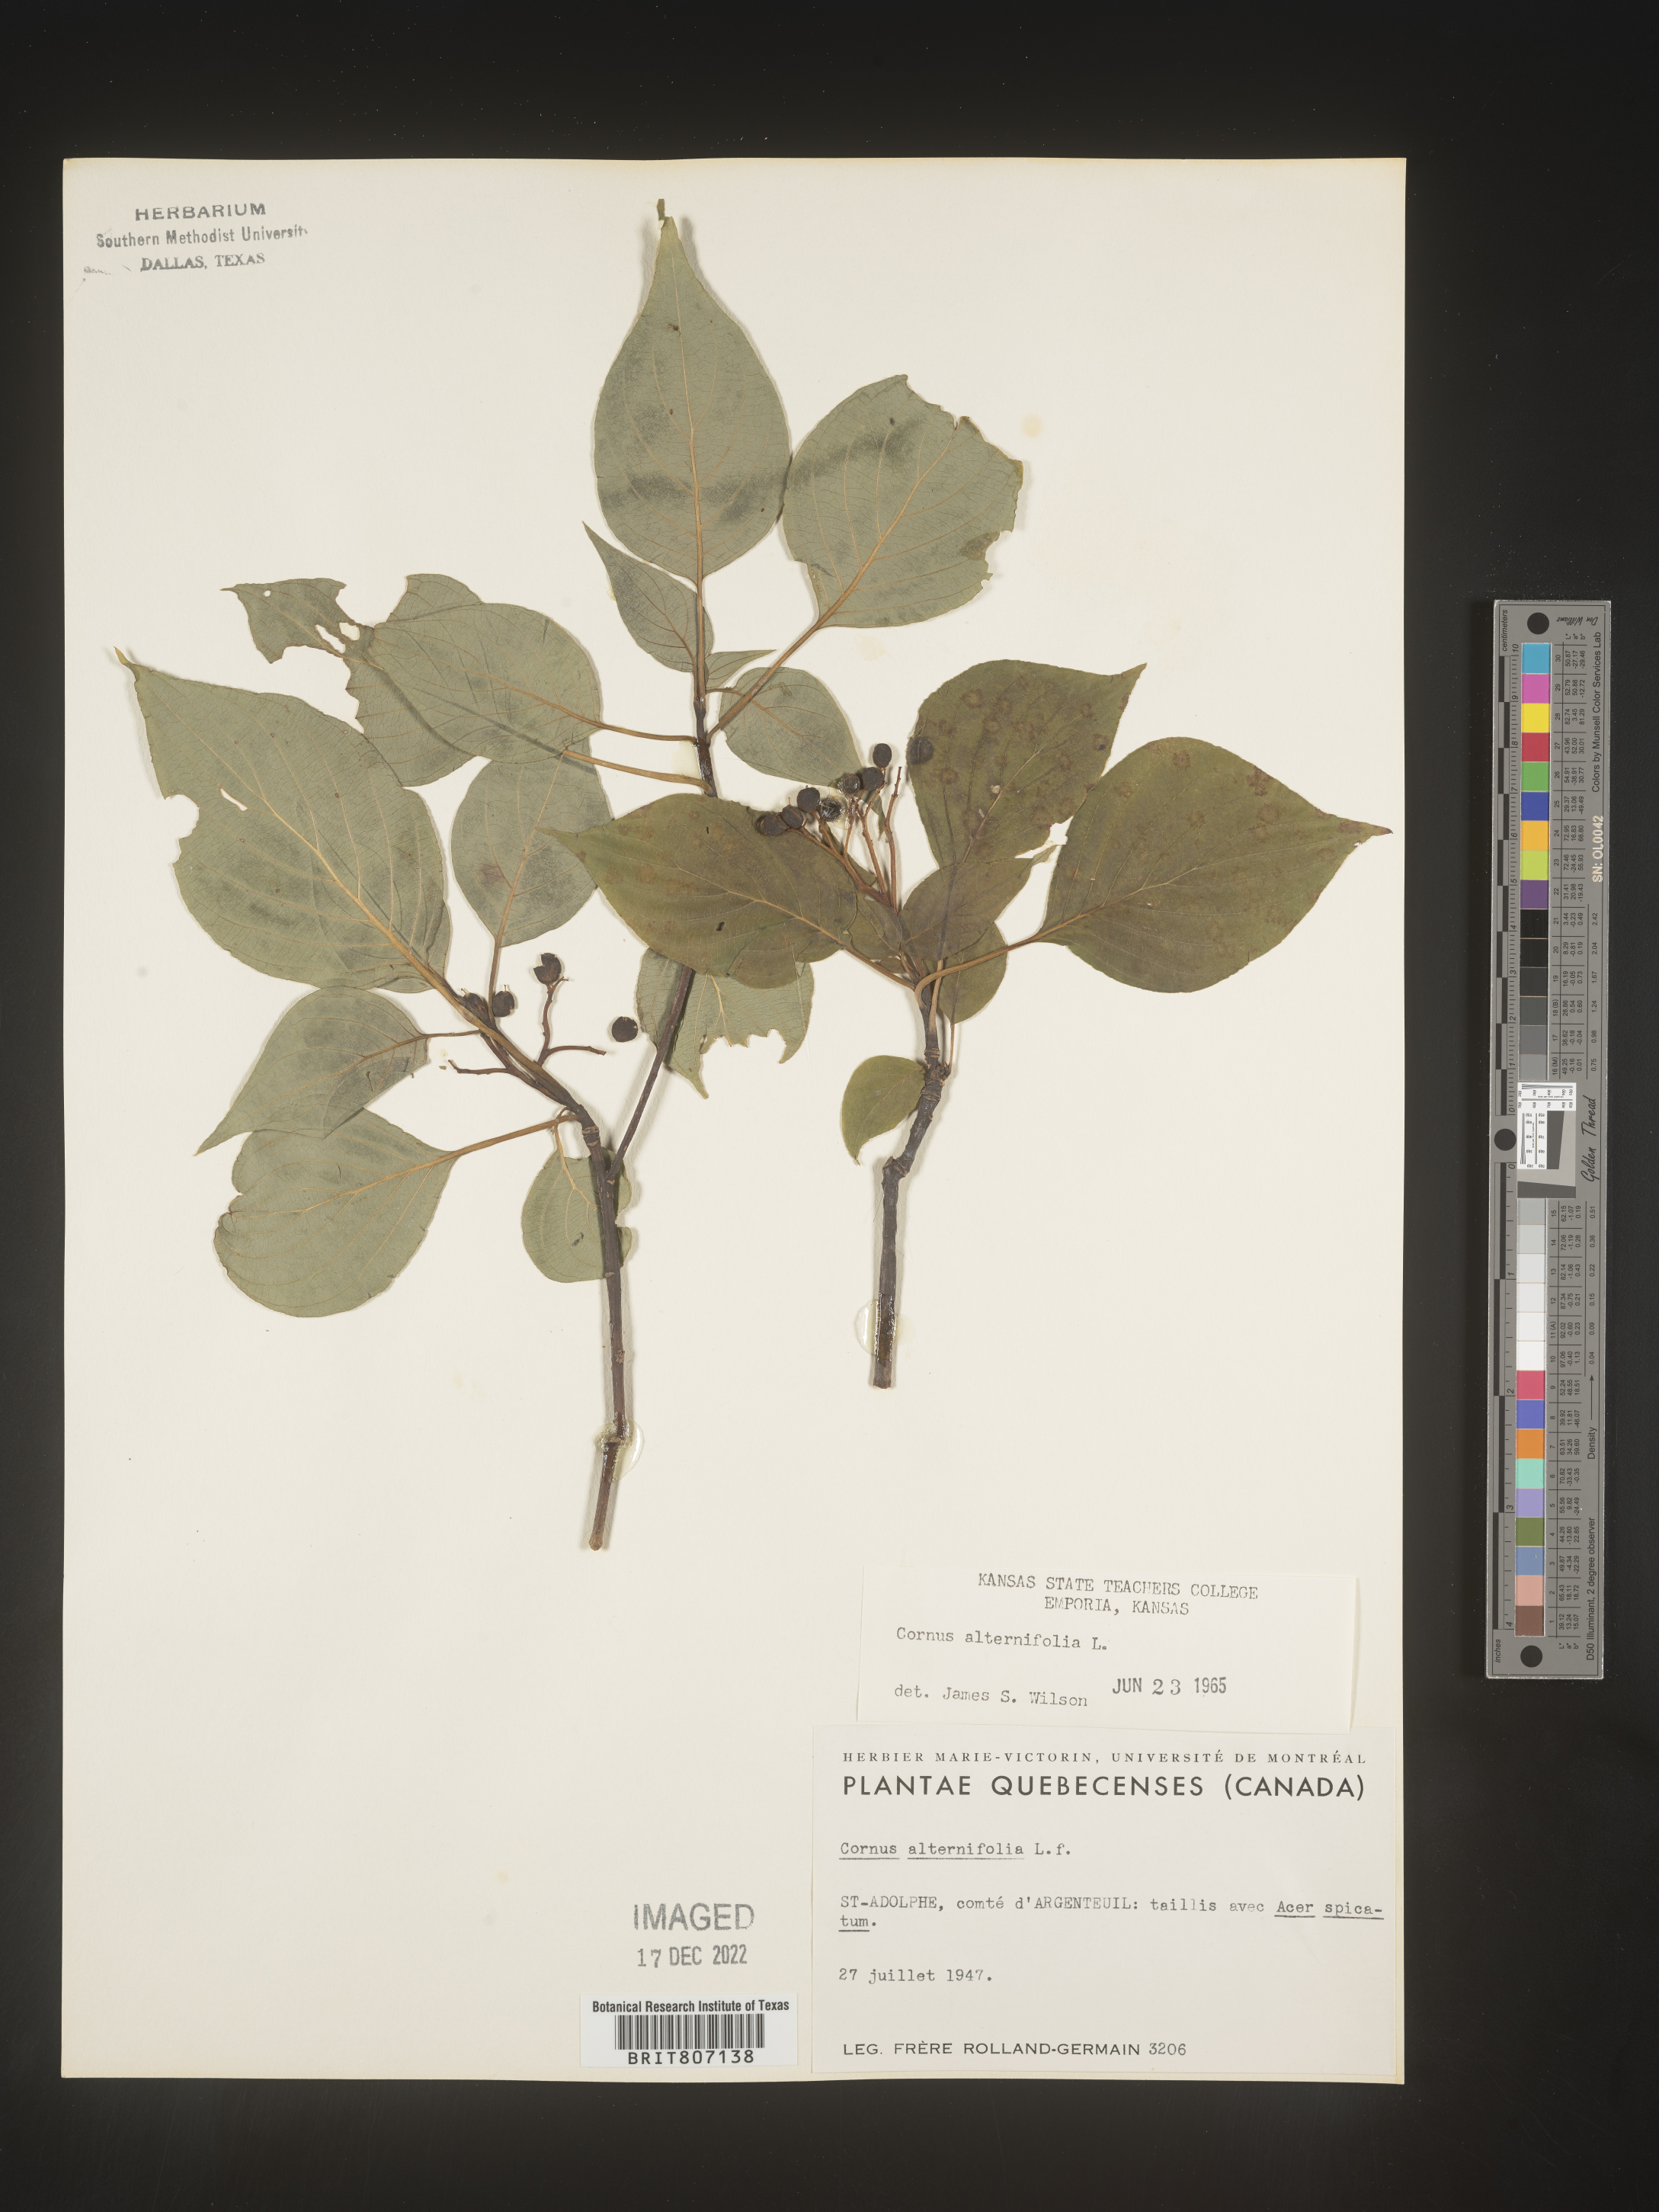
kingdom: Plantae
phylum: Tracheophyta
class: Magnoliopsida
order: Cornales
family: Cornaceae
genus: Cornus
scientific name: Cornus alternifolia
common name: Pagoda dogwood
